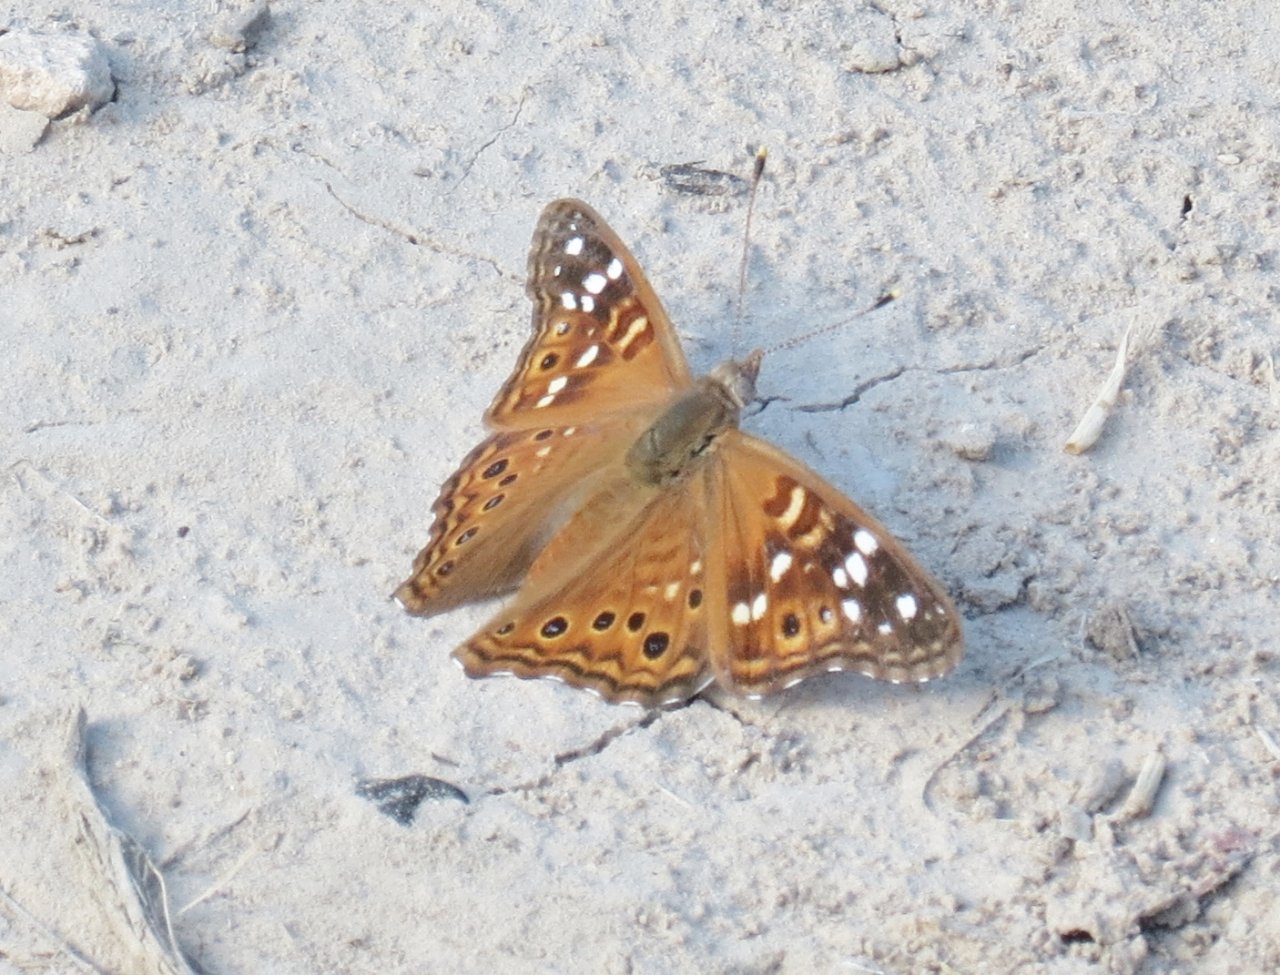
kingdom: Animalia
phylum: Arthropoda
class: Insecta
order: Lepidoptera
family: Nymphalidae
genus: Asterocampa
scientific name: Asterocampa leilia
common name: Empress Leilia
